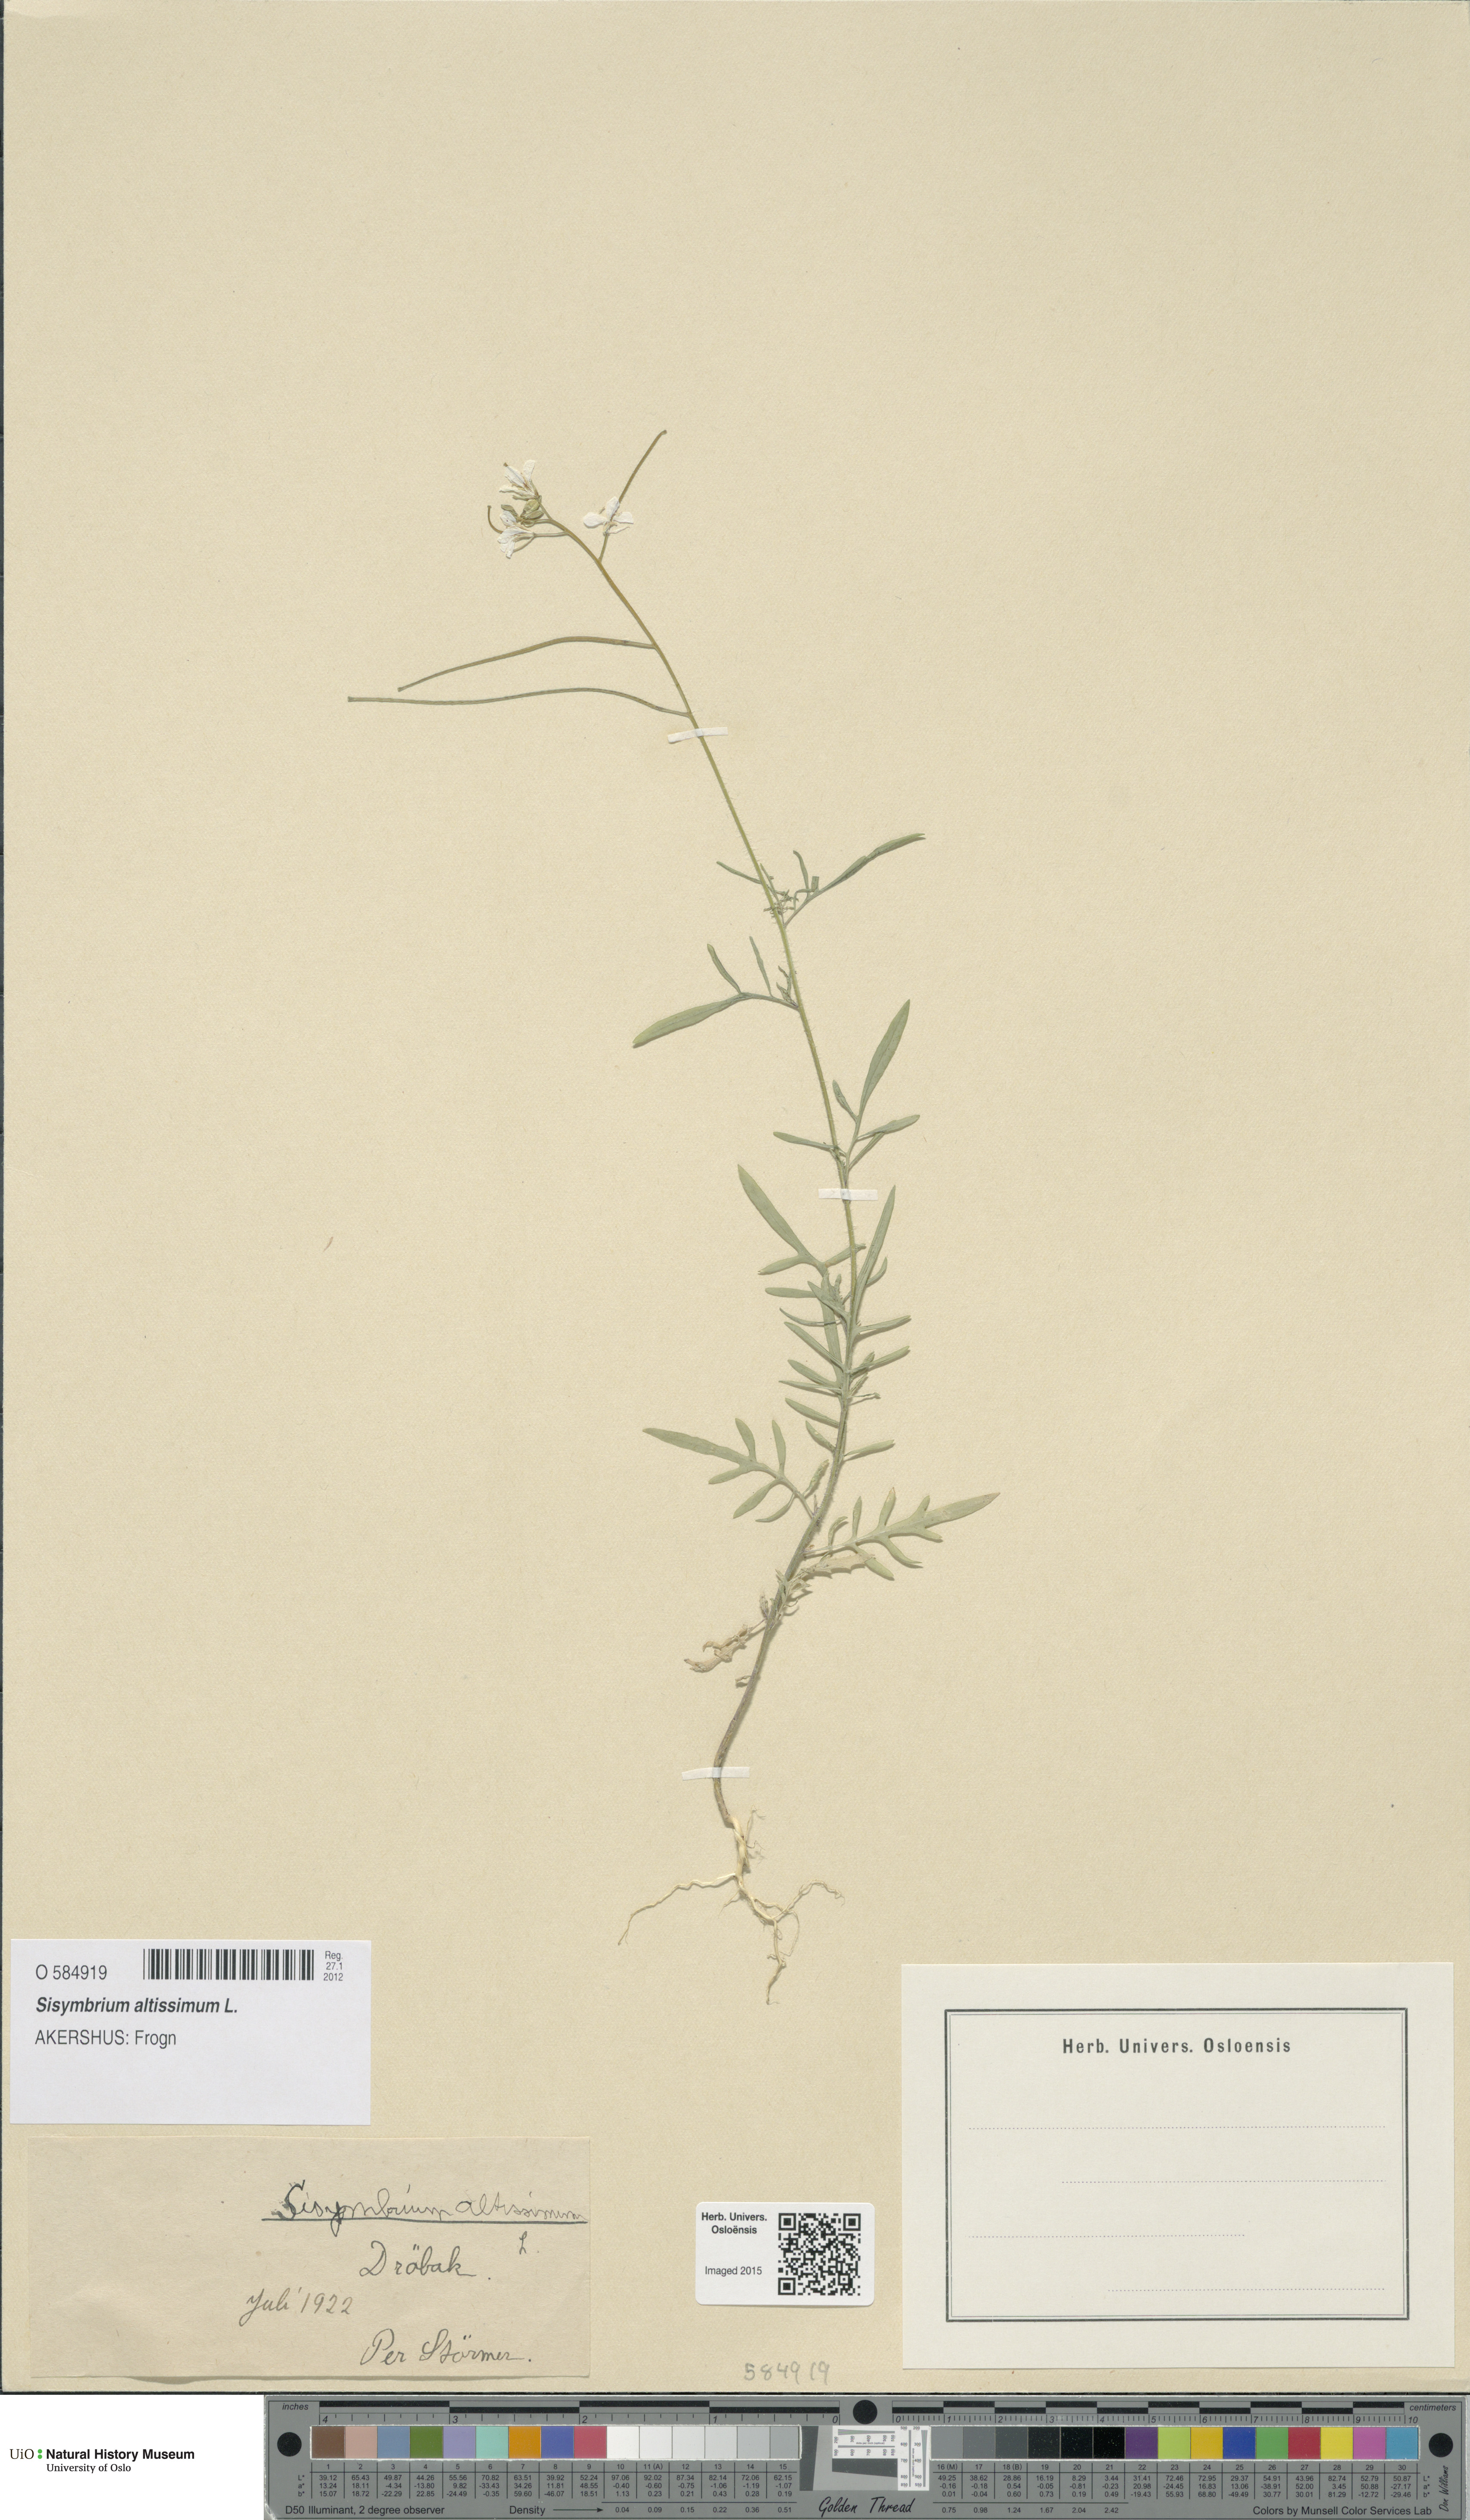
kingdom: Plantae
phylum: Tracheophyta
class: Magnoliopsida
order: Brassicales
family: Brassicaceae
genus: Sisymbrium
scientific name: Sisymbrium altissimum
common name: Tall rocket
